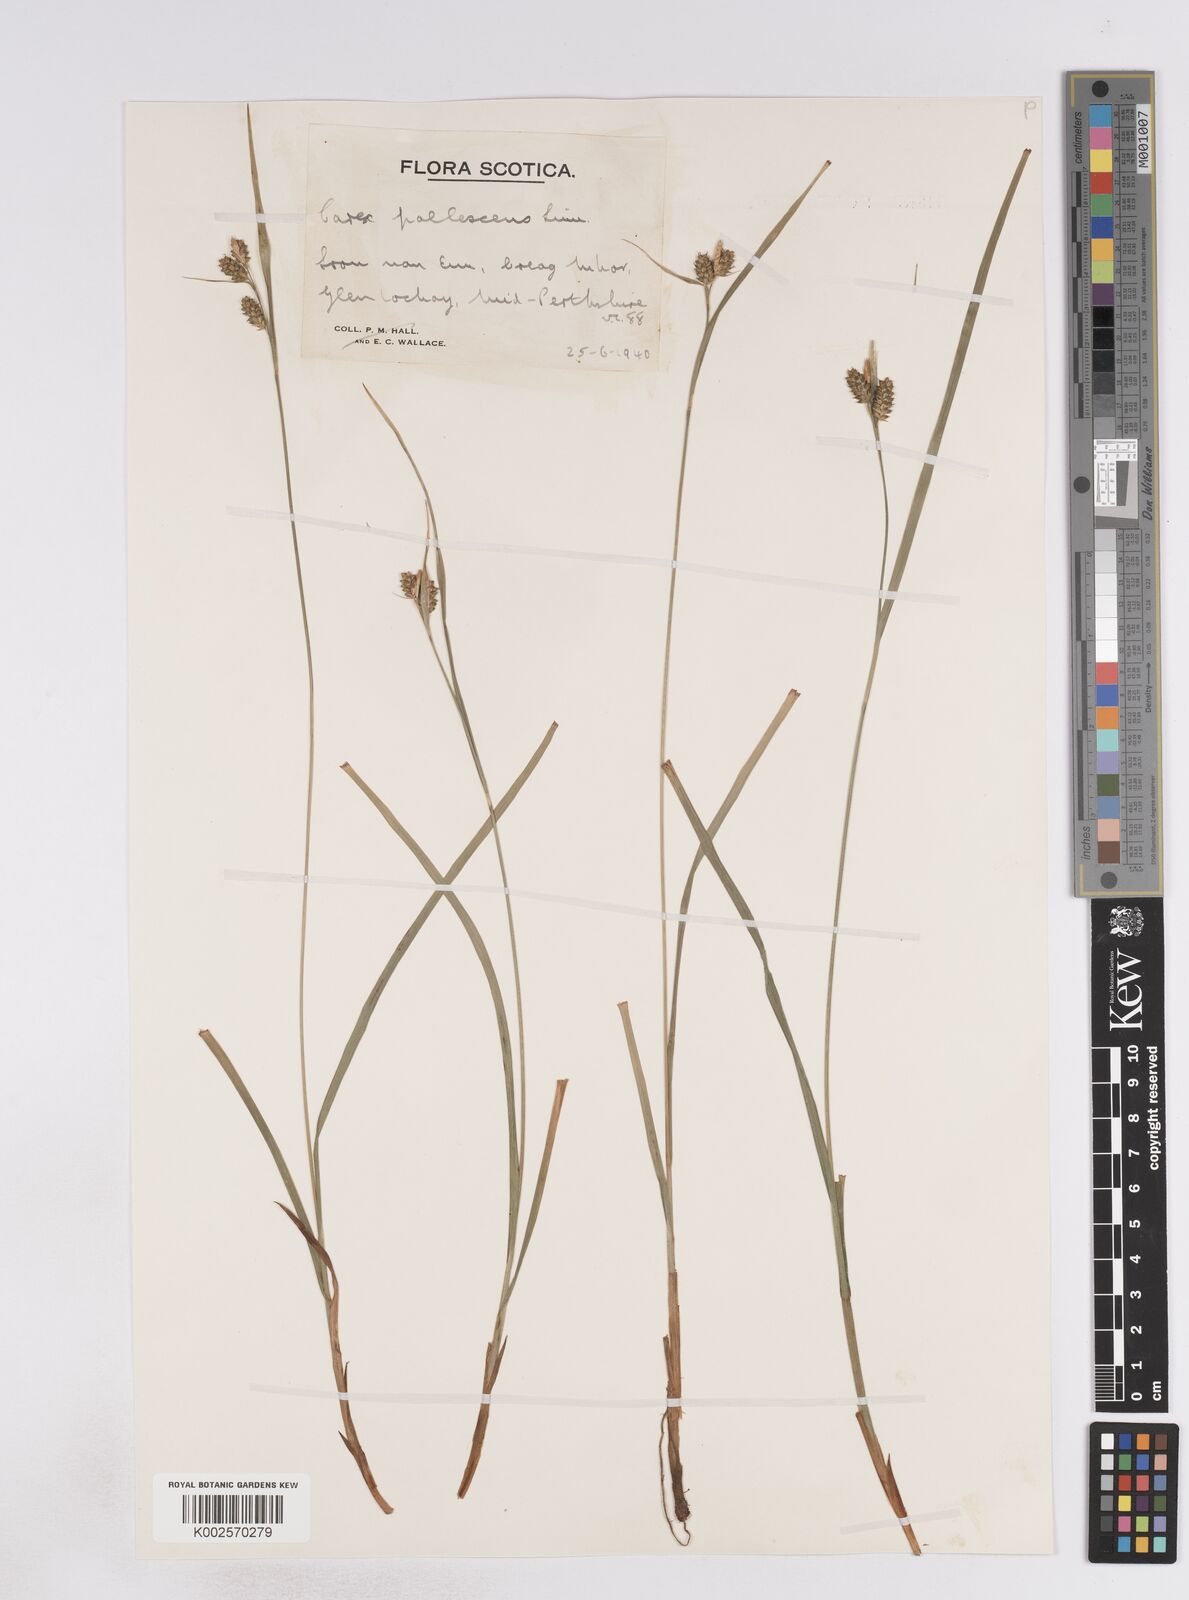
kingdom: Plantae
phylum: Tracheophyta
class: Liliopsida
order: Poales
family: Cyperaceae
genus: Carex
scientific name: Carex pallescens
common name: Pale sedge
